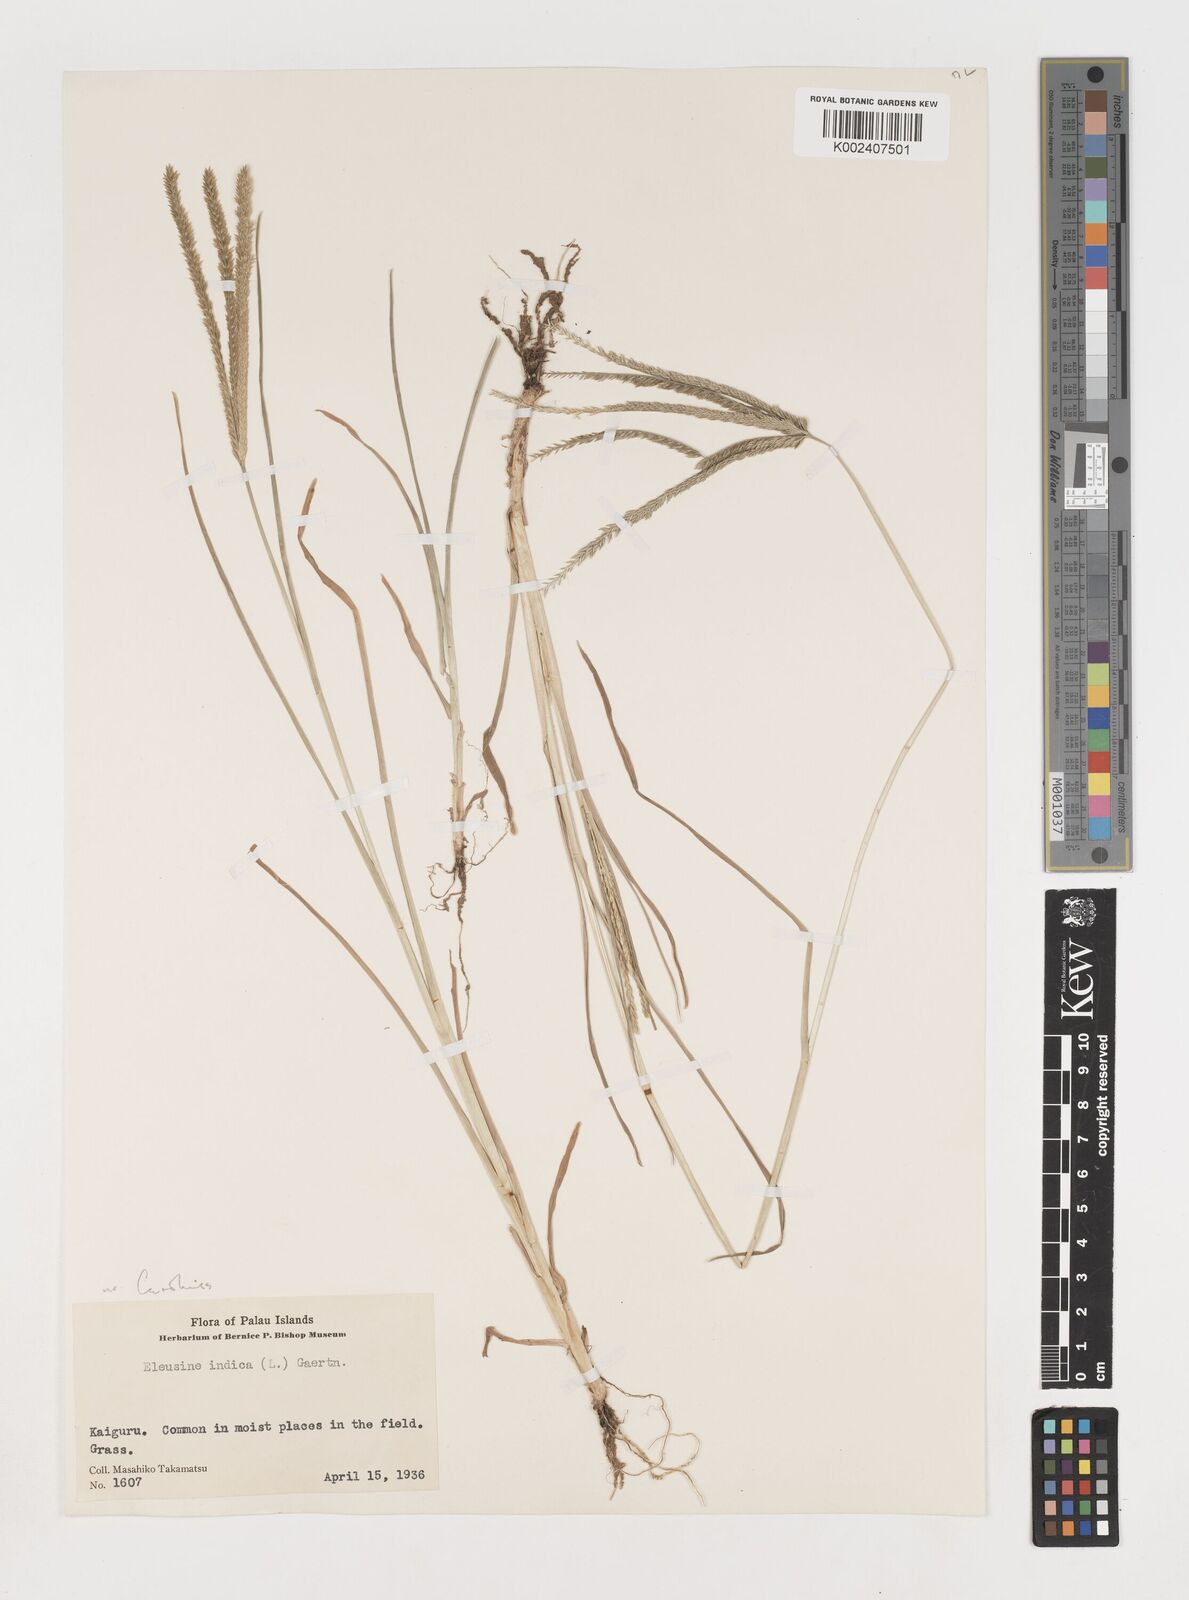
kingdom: Plantae
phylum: Tracheophyta
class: Liliopsida
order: Poales
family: Poaceae
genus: Eleusine
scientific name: Eleusine indica
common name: Yard-grass
